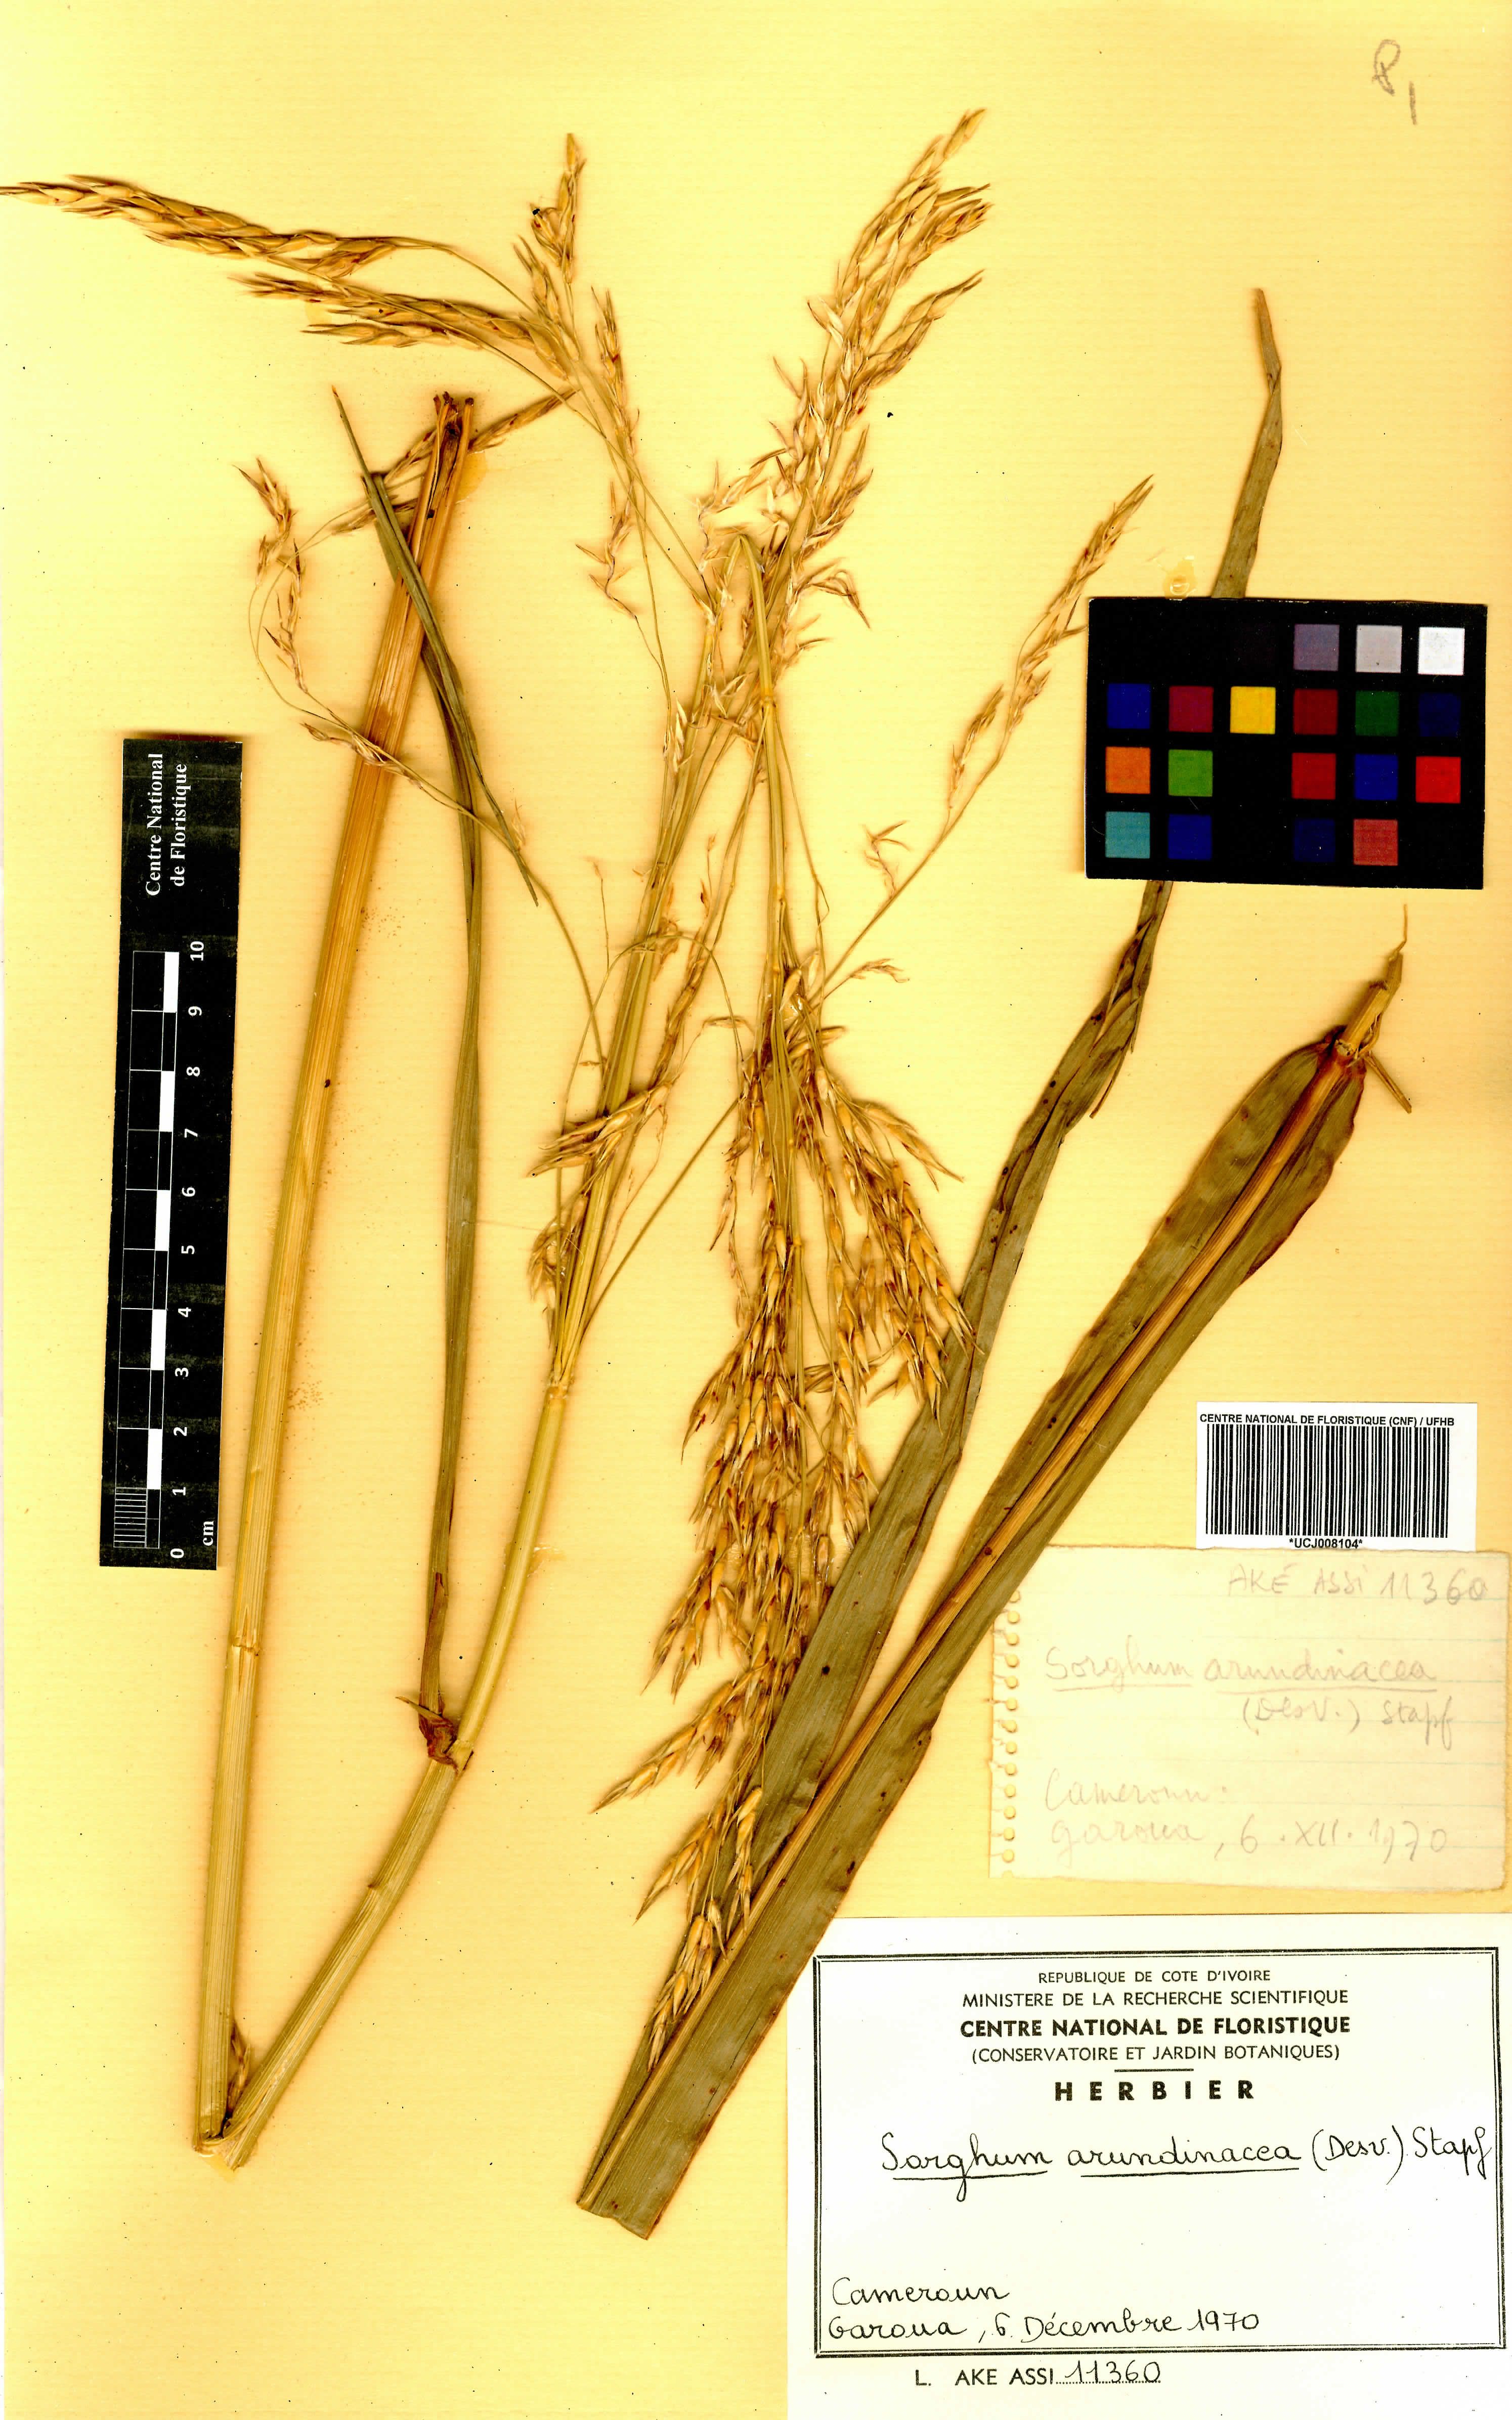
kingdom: Plantae
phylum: Tracheophyta
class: Liliopsida
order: Poales
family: Poaceae
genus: Sorghum
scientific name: Sorghum arundinaceum
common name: Sorghum
